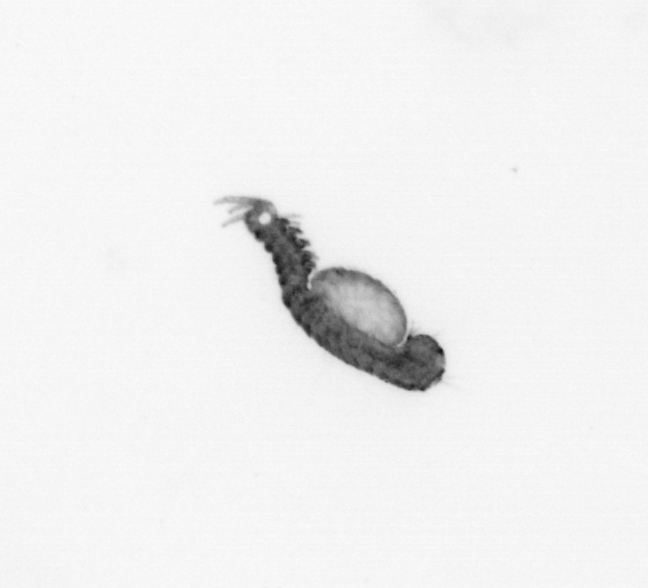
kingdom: Animalia
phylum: Annelida
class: Polychaeta
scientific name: Polychaeta
